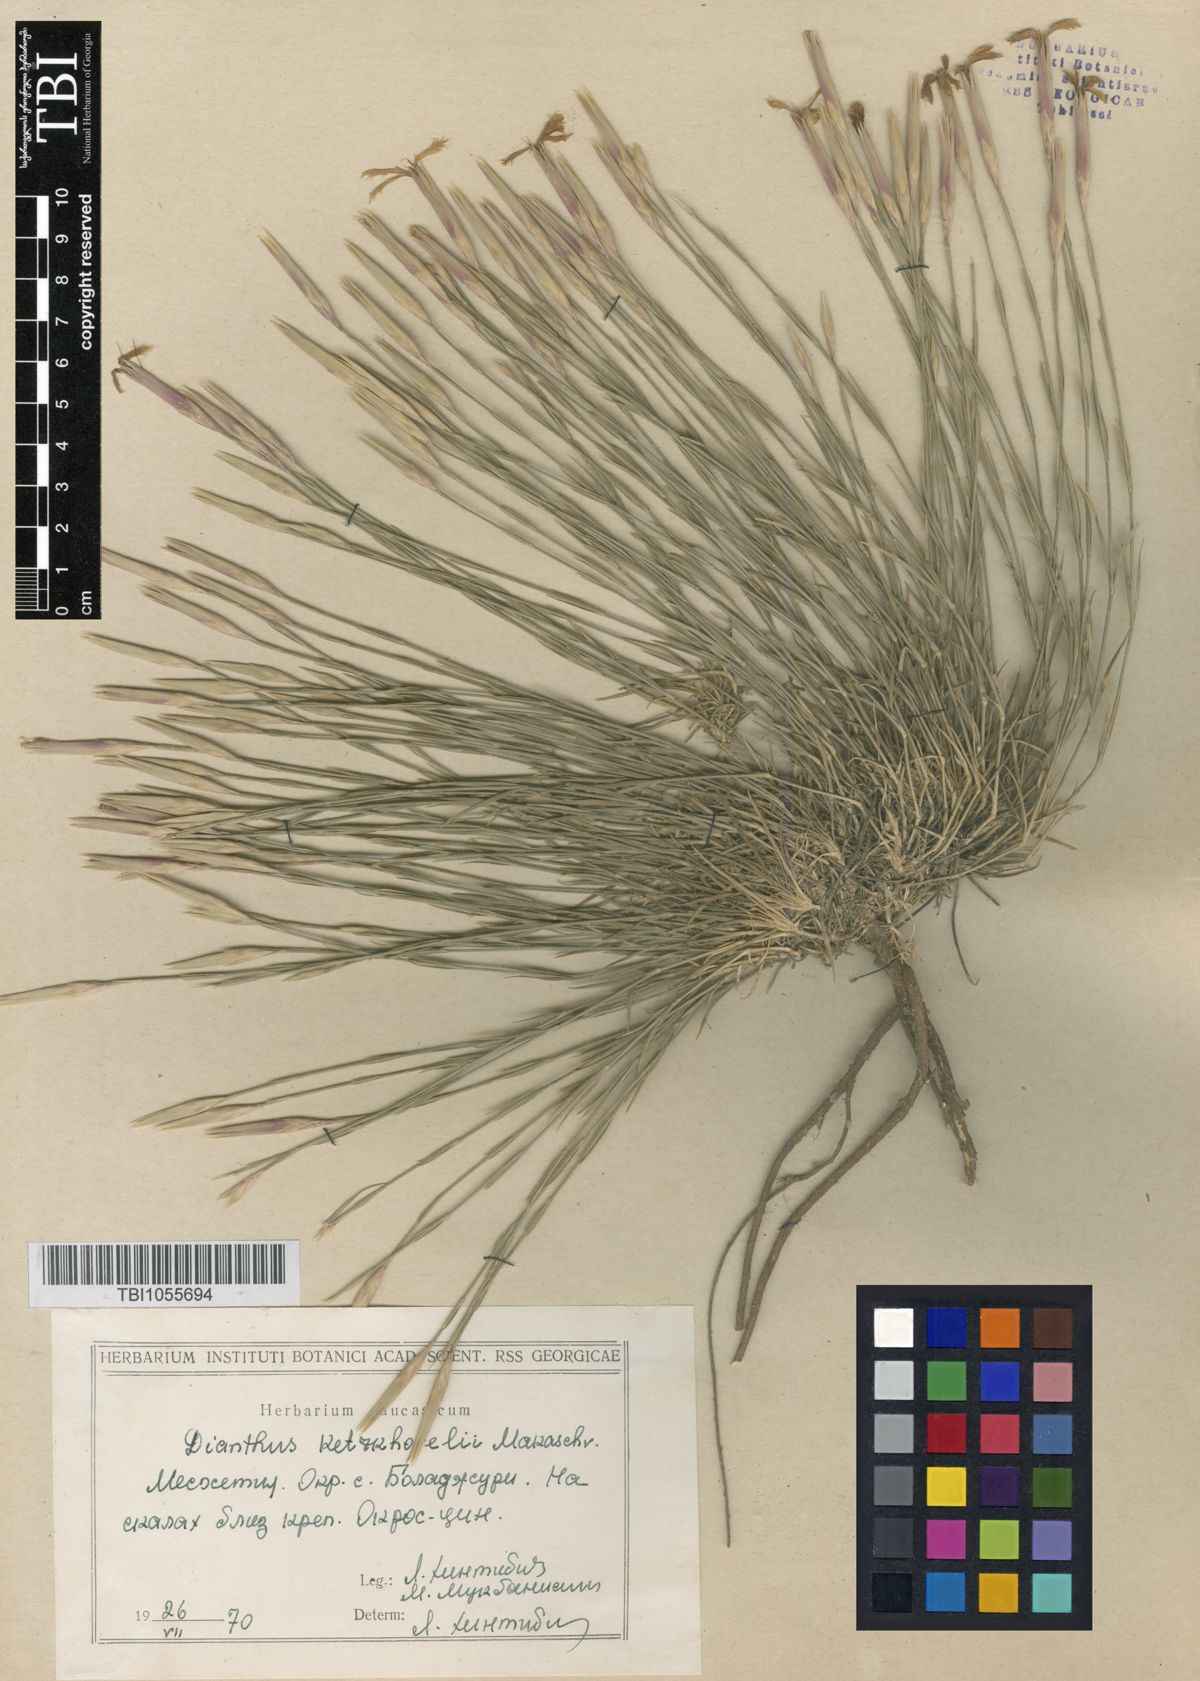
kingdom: Plantae
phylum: Tracheophyta
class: Magnoliopsida
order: Caryophyllales
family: Caryophyllaceae
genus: Dianthus
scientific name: Dianthus orientalis
